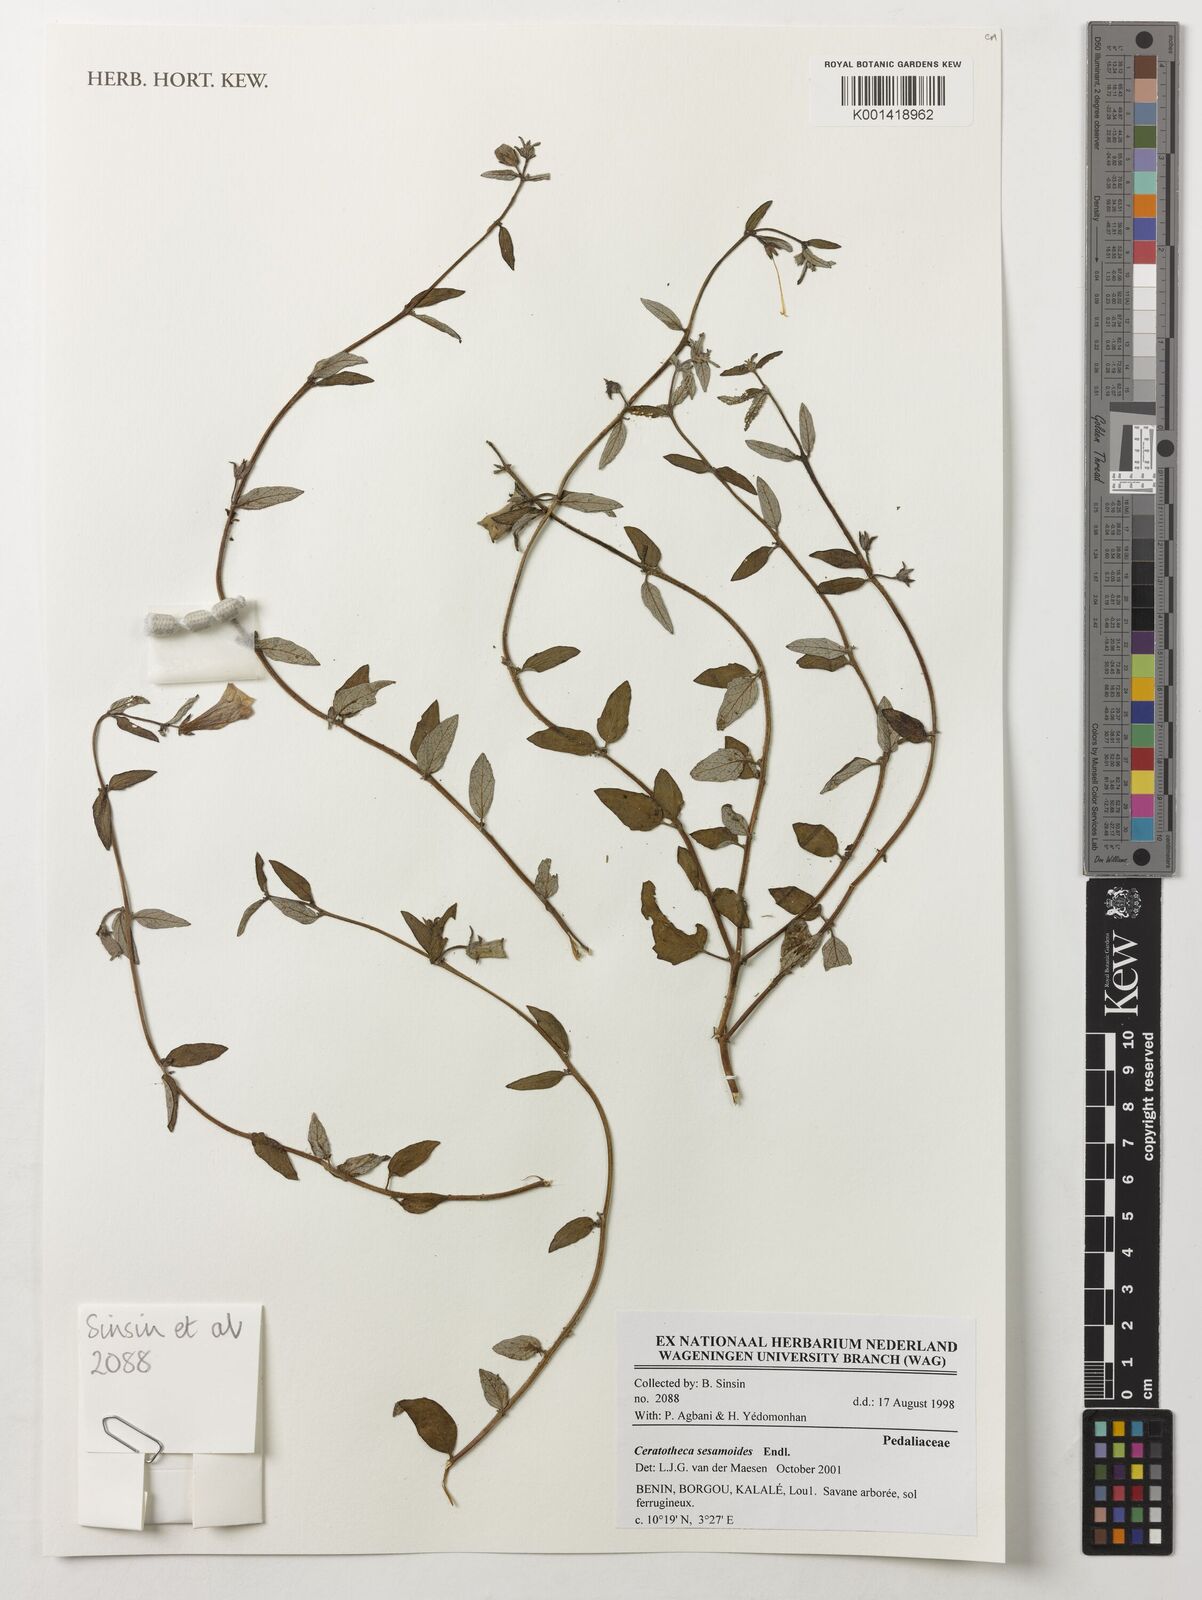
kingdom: Plantae
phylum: Tracheophyta
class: Magnoliopsida
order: Lamiales
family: Pedaliaceae
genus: Sesamum
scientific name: Sesamum sesamoides
